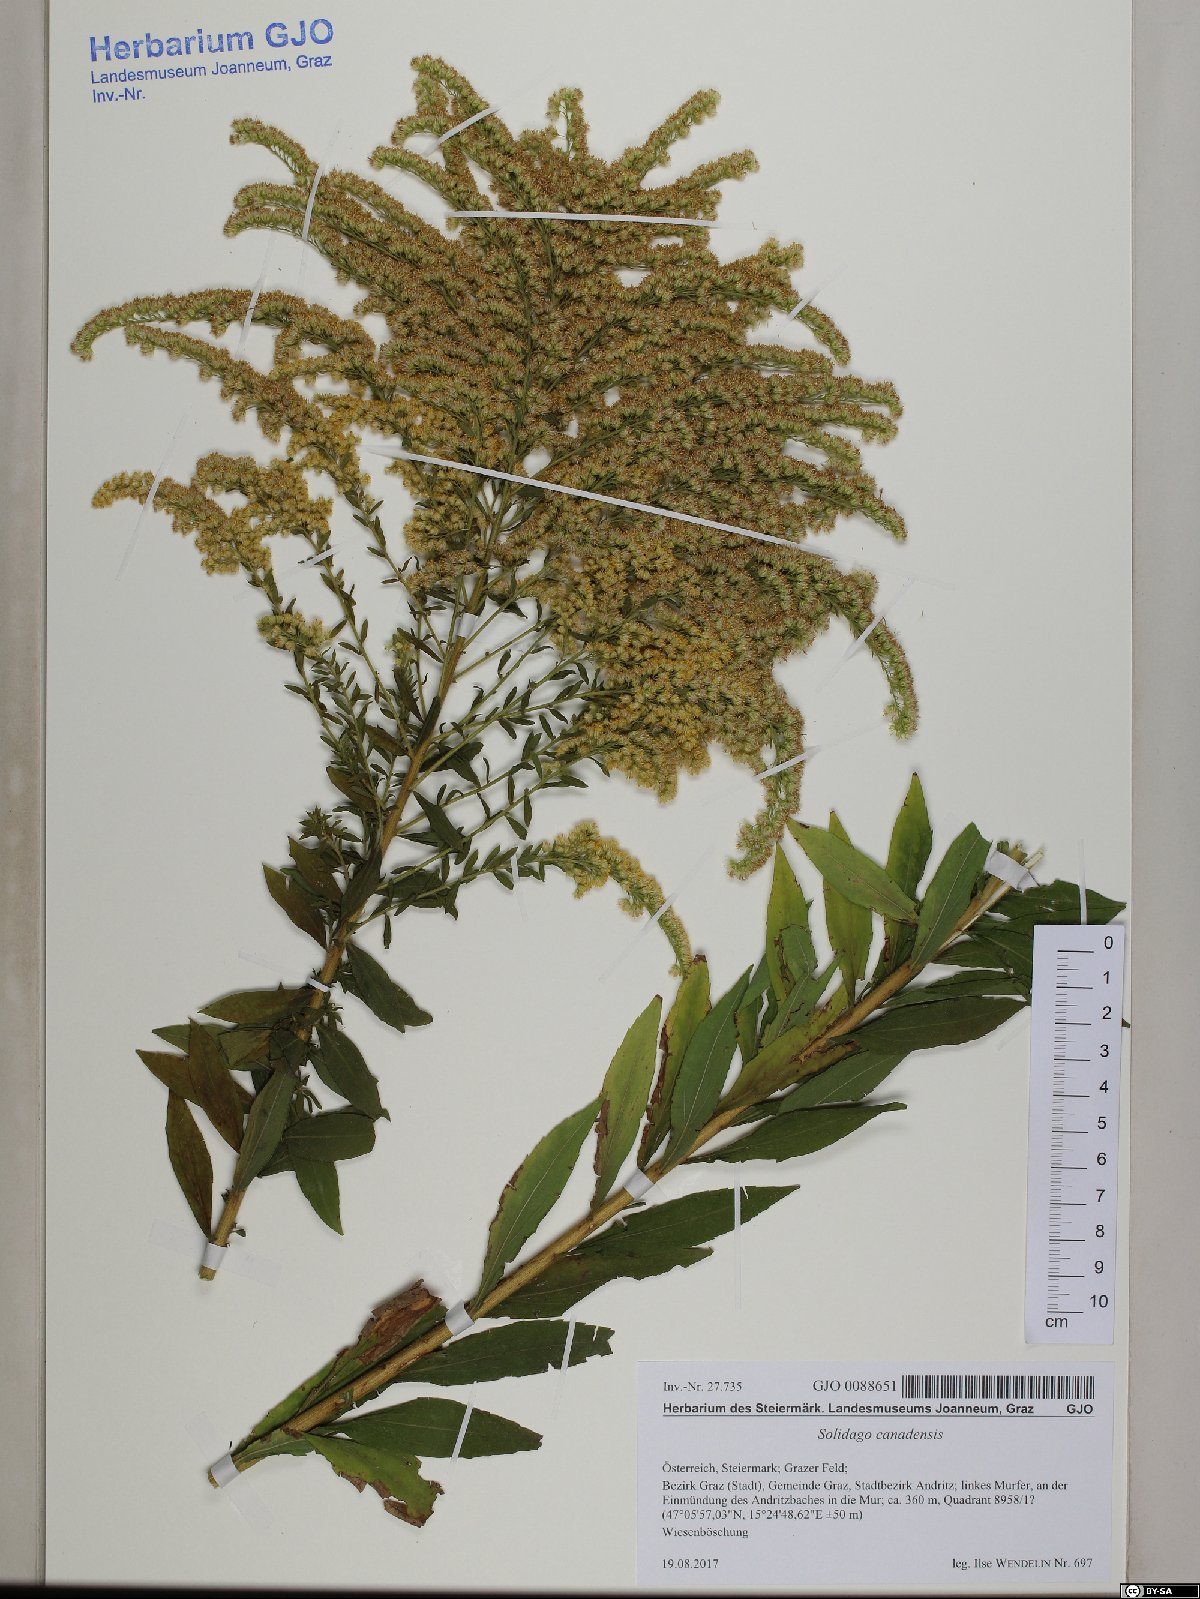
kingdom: Plantae
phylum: Tracheophyta
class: Magnoliopsida
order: Asterales
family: Asteraceae
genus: Solidago
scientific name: Solidago canadensis
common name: Canada goldenrod
